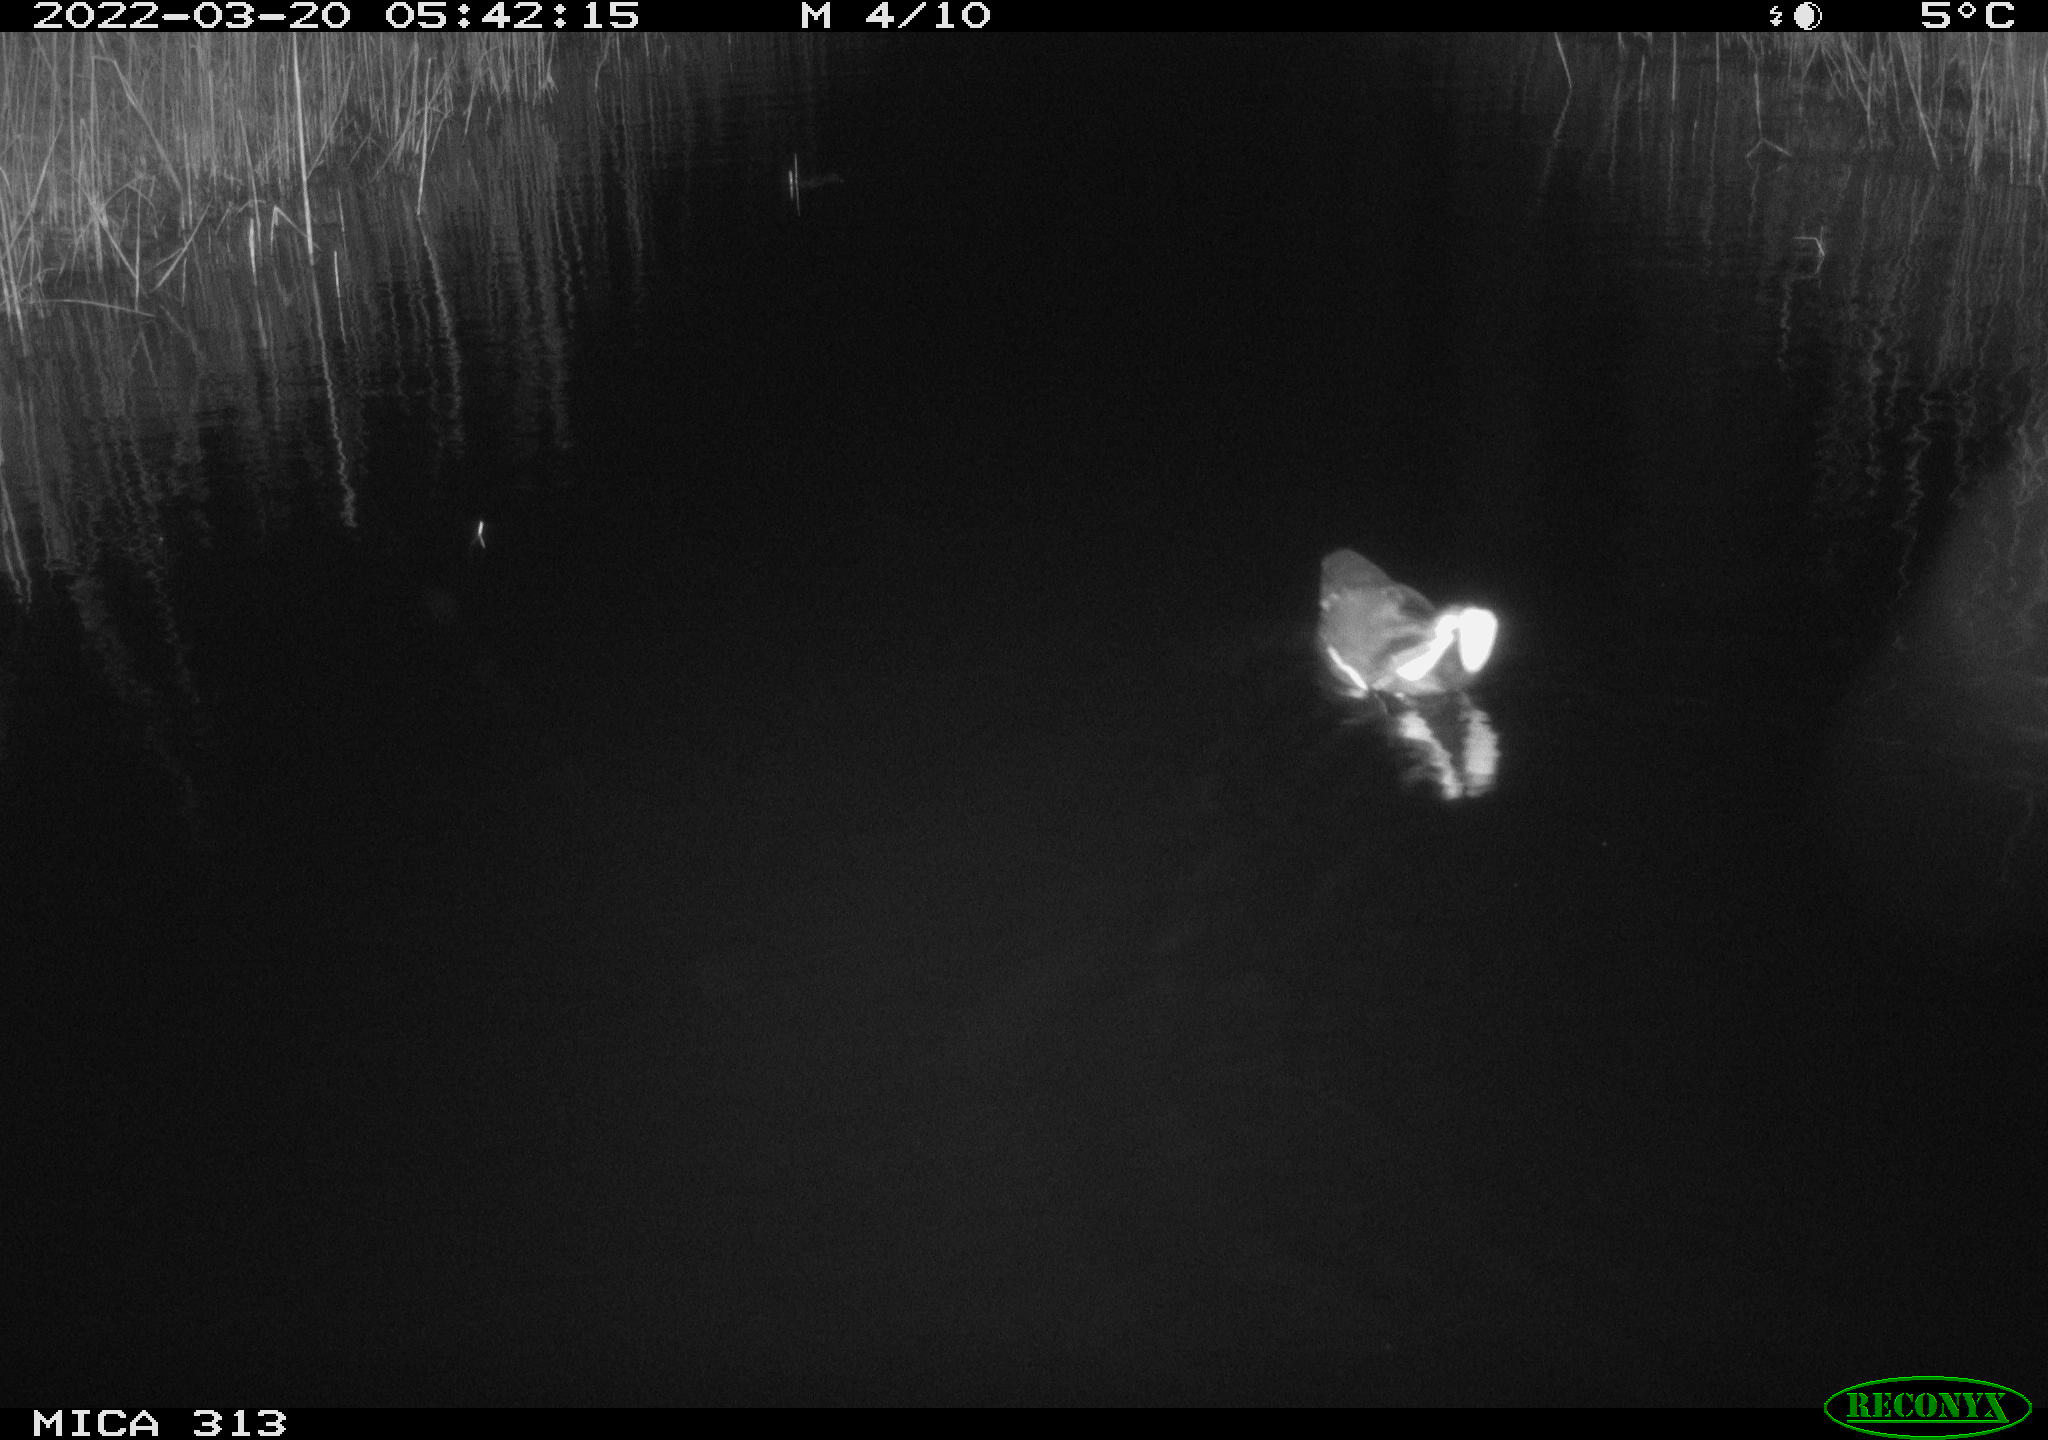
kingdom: Animalia
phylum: Chordata
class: Aves
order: Gruiformes
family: Rallidae
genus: Gallinula
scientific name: Gallinula chloropus
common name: Common moorhen
